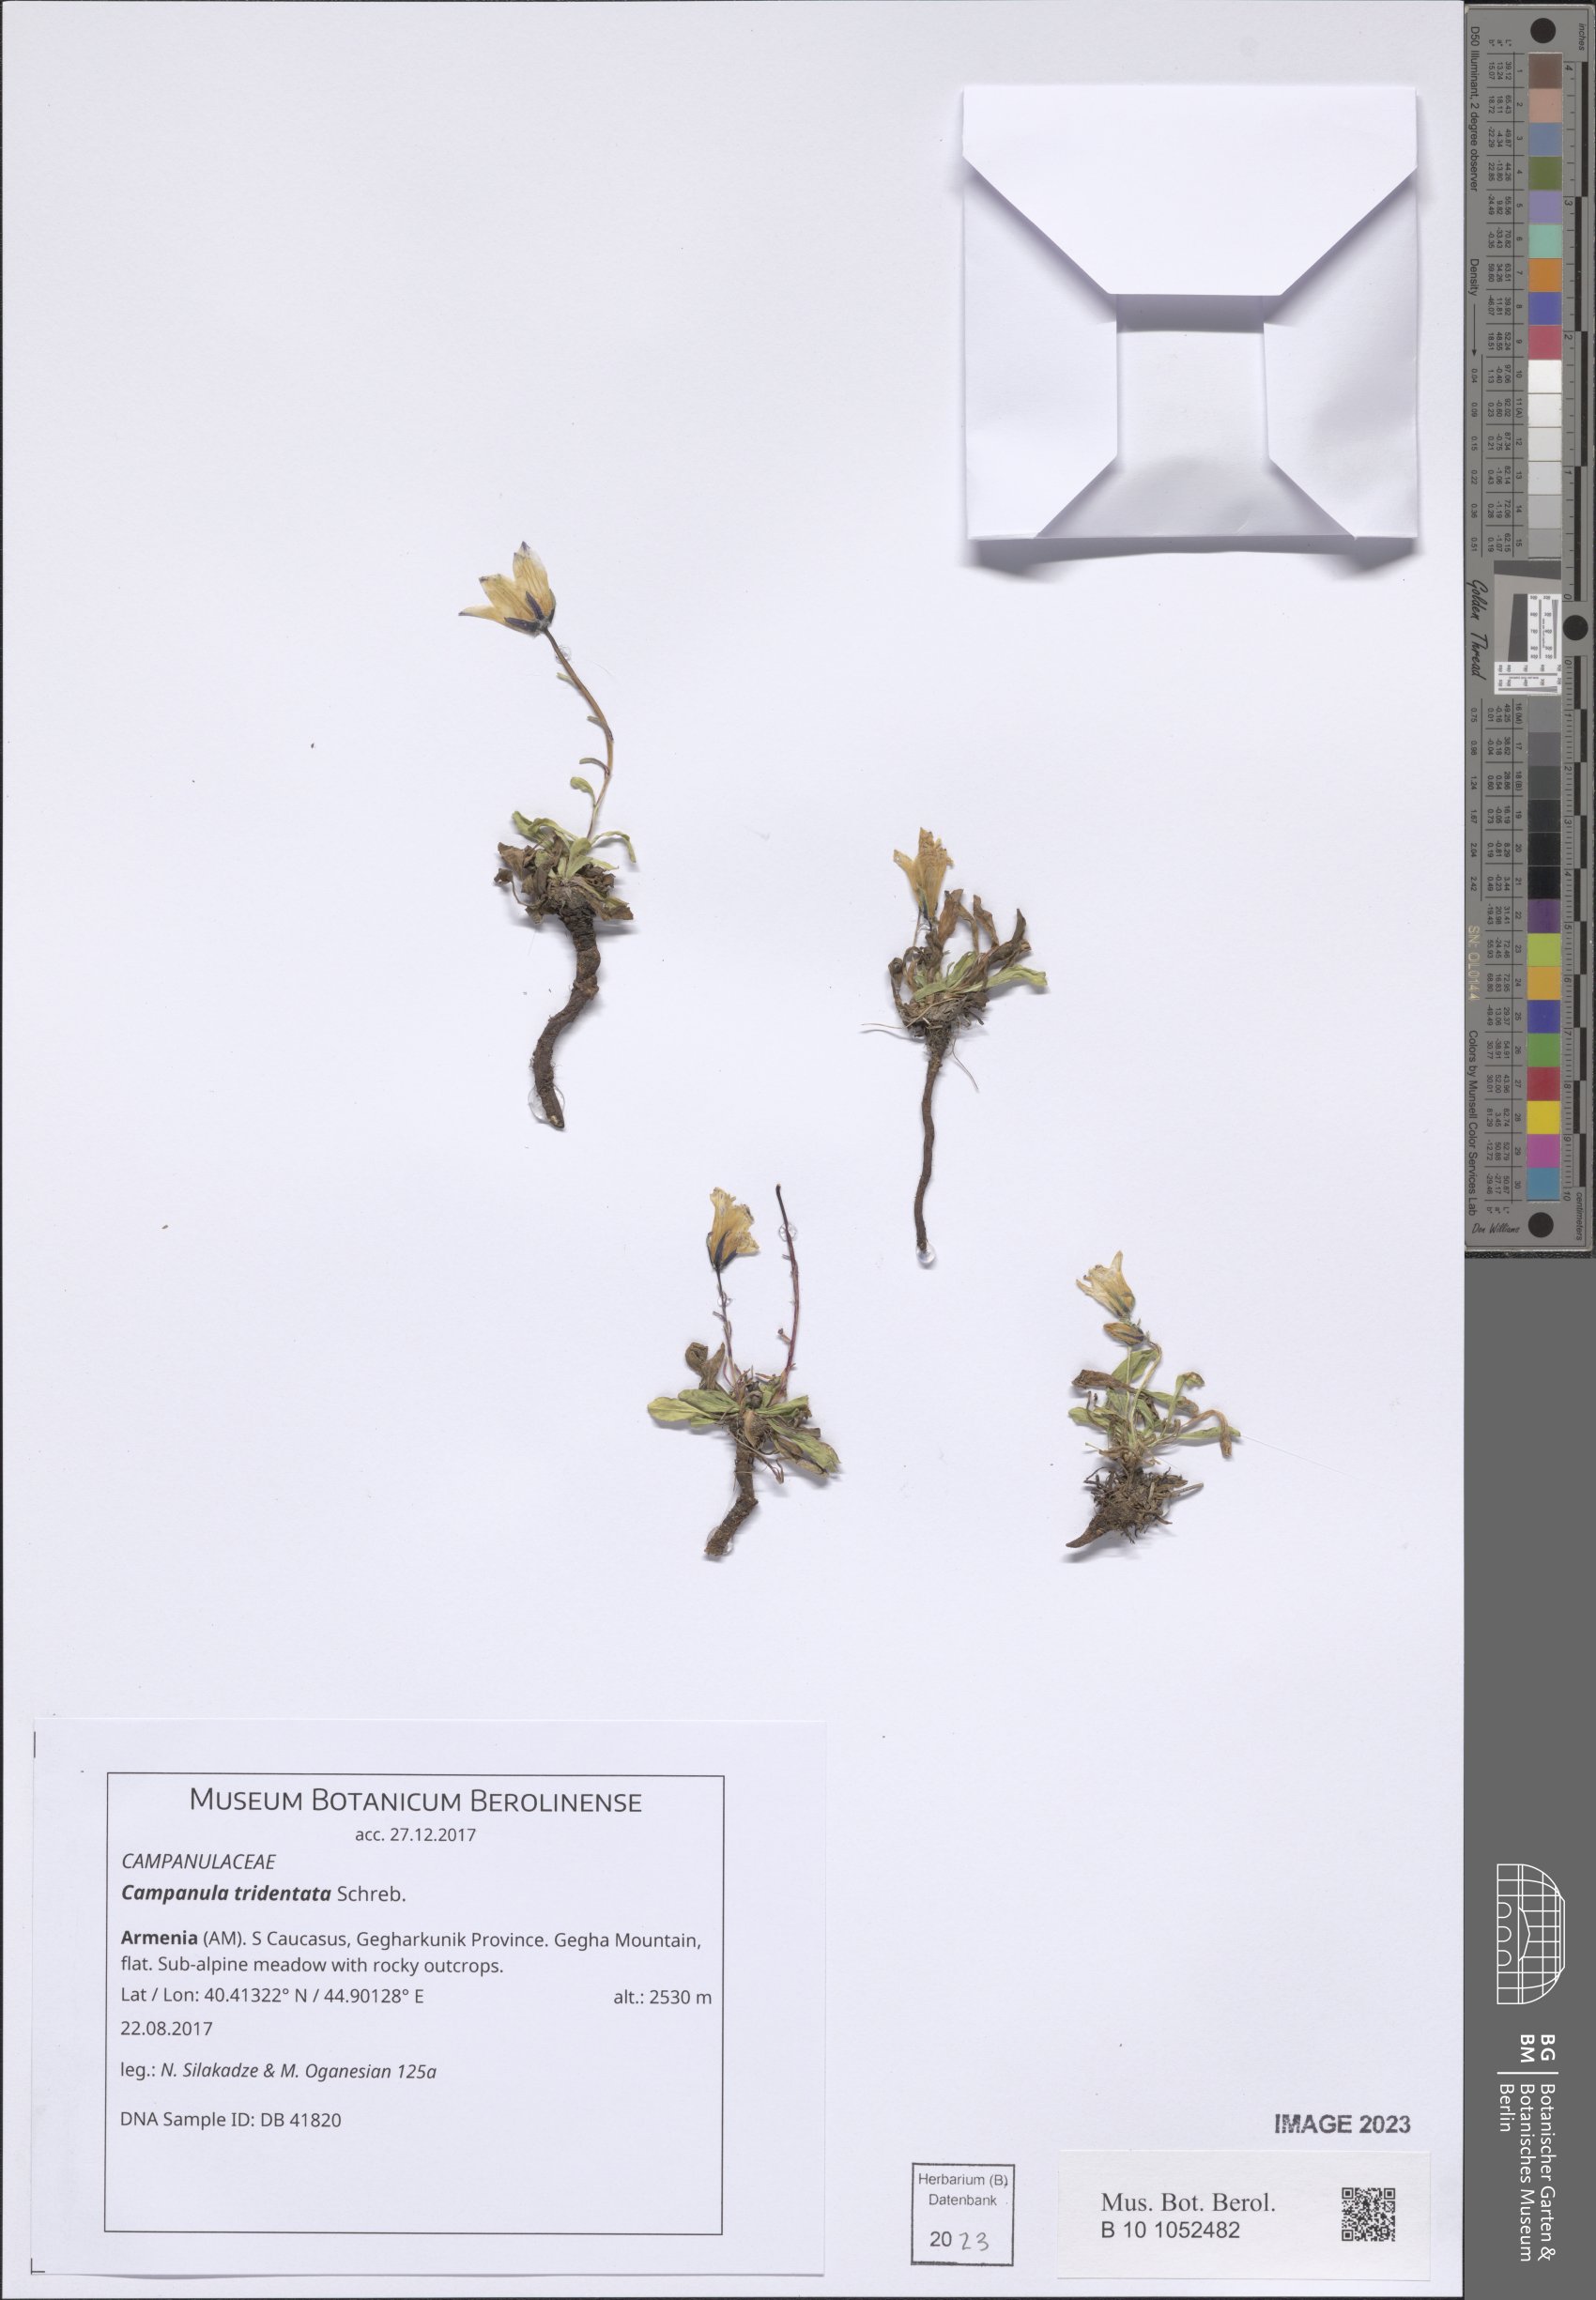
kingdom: Plantae
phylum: Tracheophyta
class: Magnoliopsida
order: Asterales
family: Campanulaceae
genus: Campanula
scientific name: Campanula tridentata
